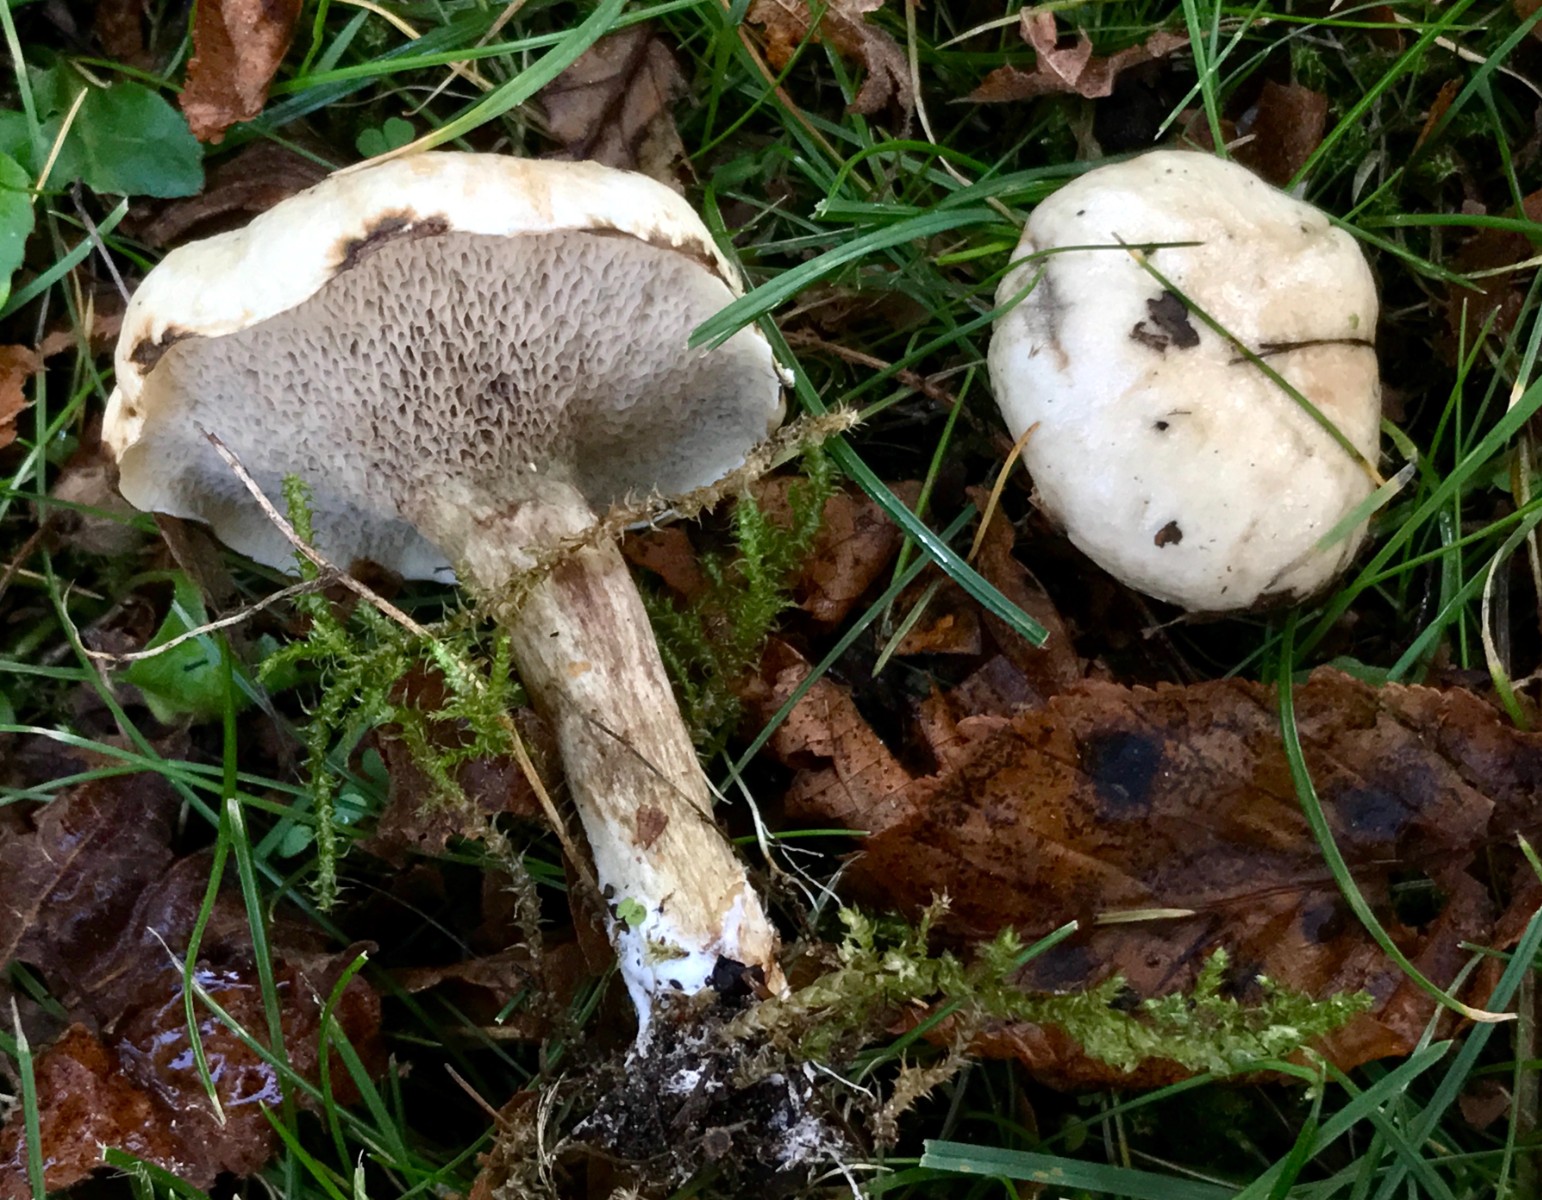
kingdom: Fungi
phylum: Basidiomycota
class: Agaricomycetes
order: Boletales
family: Suillaceae
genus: Suillus
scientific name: Suillus viscidus
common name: olivengrå slimrørhat
